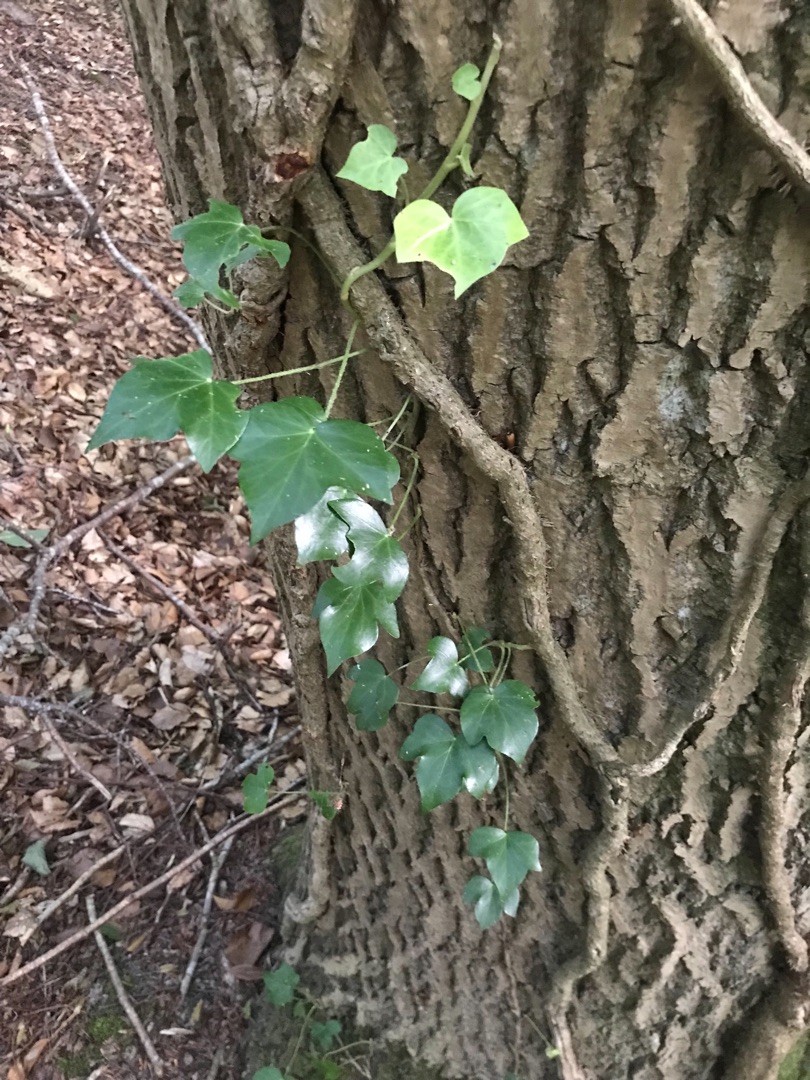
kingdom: Plantae
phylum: Tracheophyta
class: Magnoliopsida
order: Apiales
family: Araliaceae
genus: Hedera
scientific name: Hedera helix
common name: Vedbend
